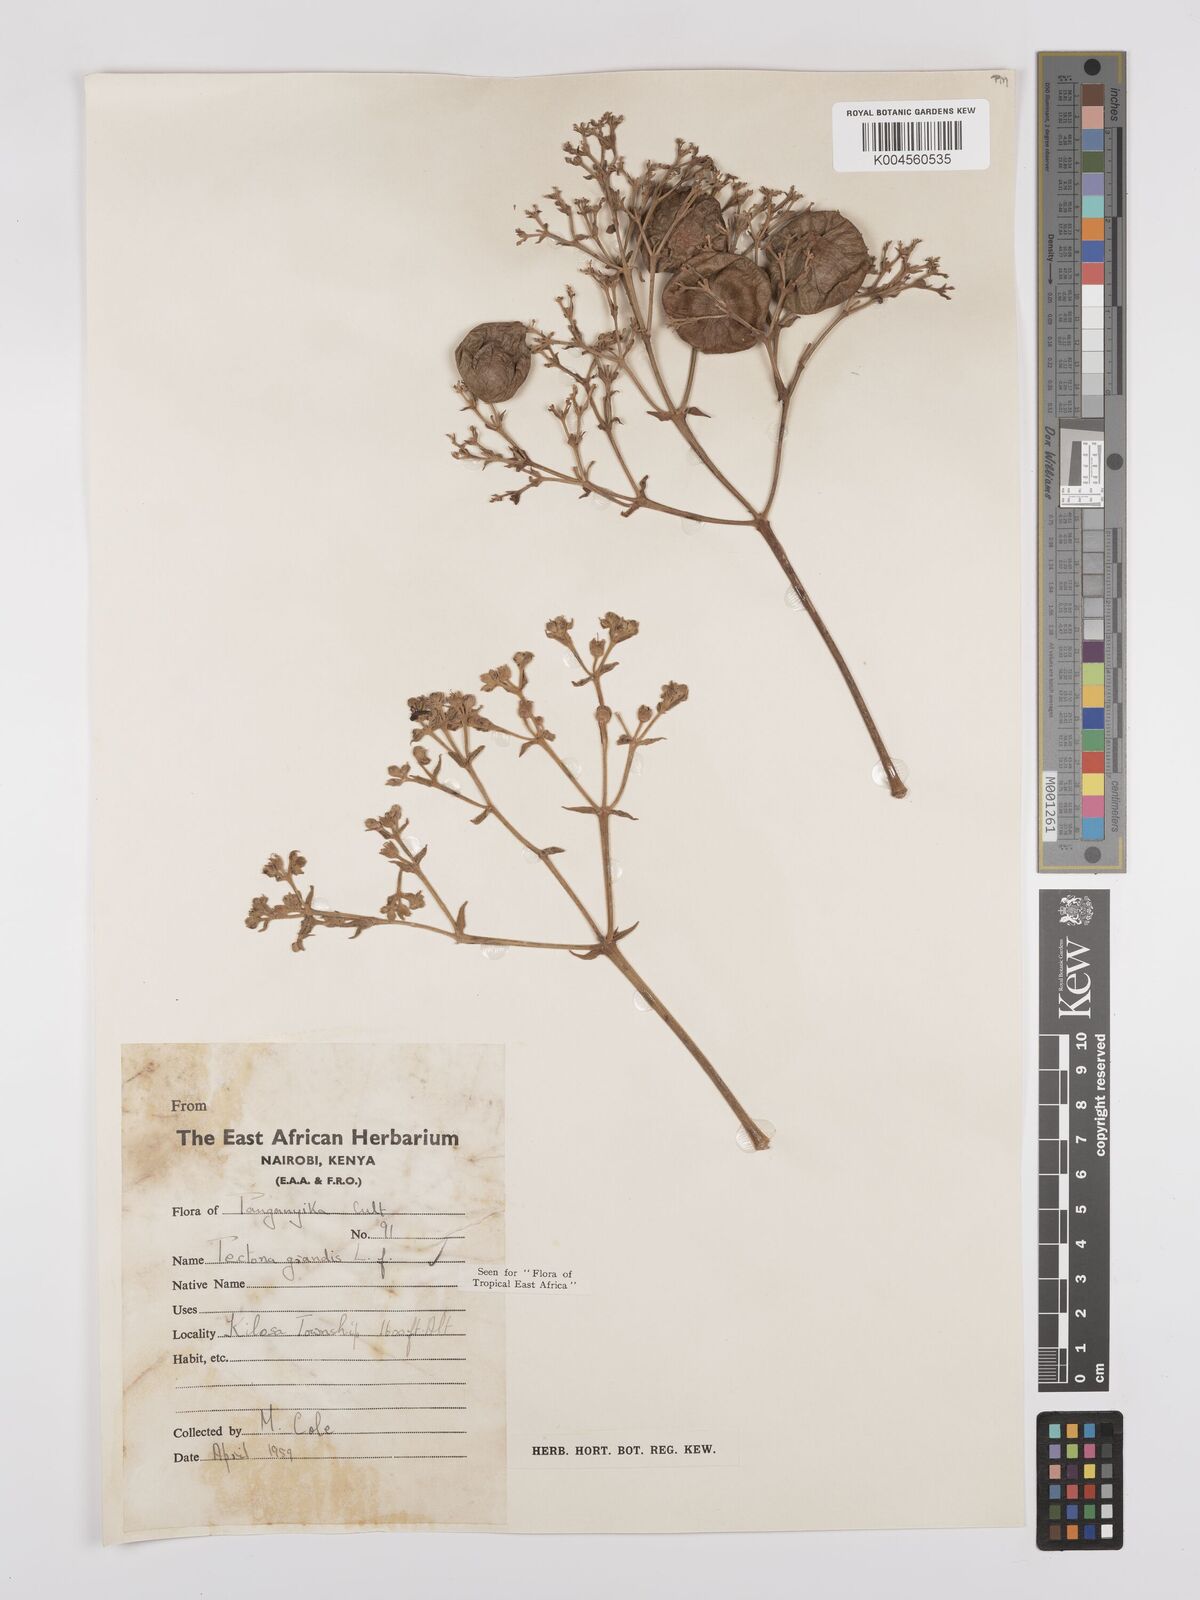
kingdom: Plantae
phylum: Tracheophyta
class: Magnoliopsida
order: Lamiales
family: Lamiaceae
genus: Tectona
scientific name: Tectona grandis
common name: Teak
